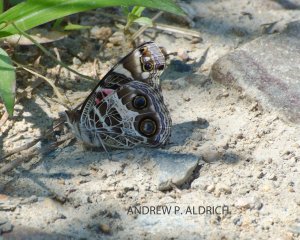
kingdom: Animalia
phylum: Arthropoda
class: Insecta
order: Lepidoptera
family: Nymphalidae
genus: Vanessa
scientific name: Vanessa virginiensis
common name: American Lady
